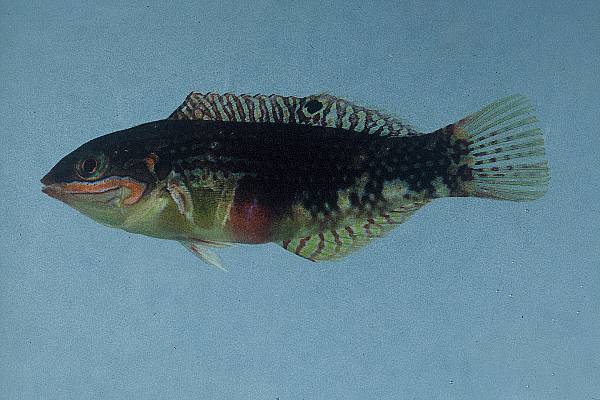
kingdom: Animalia
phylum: Chordata
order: Perciformes
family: Labridae
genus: Halichoeres
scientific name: Halichoeres margaritaceus
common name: Pink-belly wrasse
